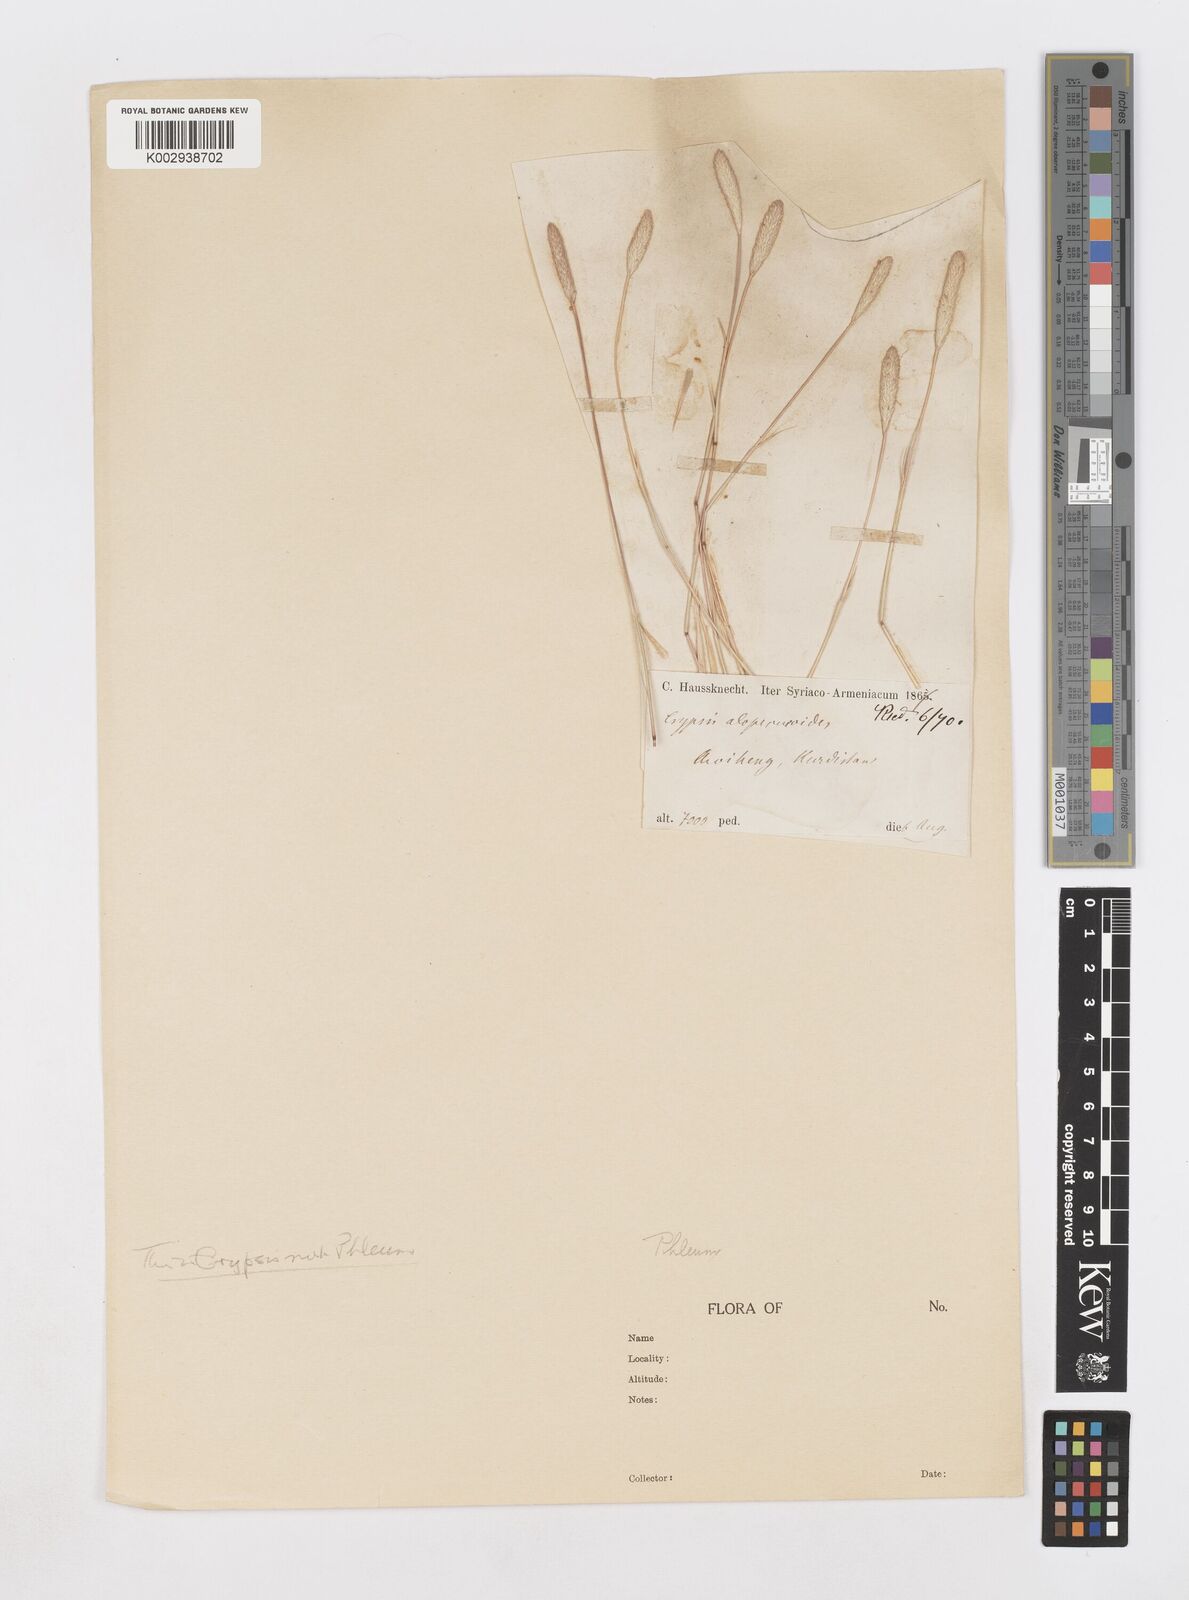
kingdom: Plantae
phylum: Tracheophyta
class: Liliopsida
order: Poales
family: Poaceae
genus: Sporobolus
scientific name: Sporobolus alopecuroides
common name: Foxtail pricklegrass
